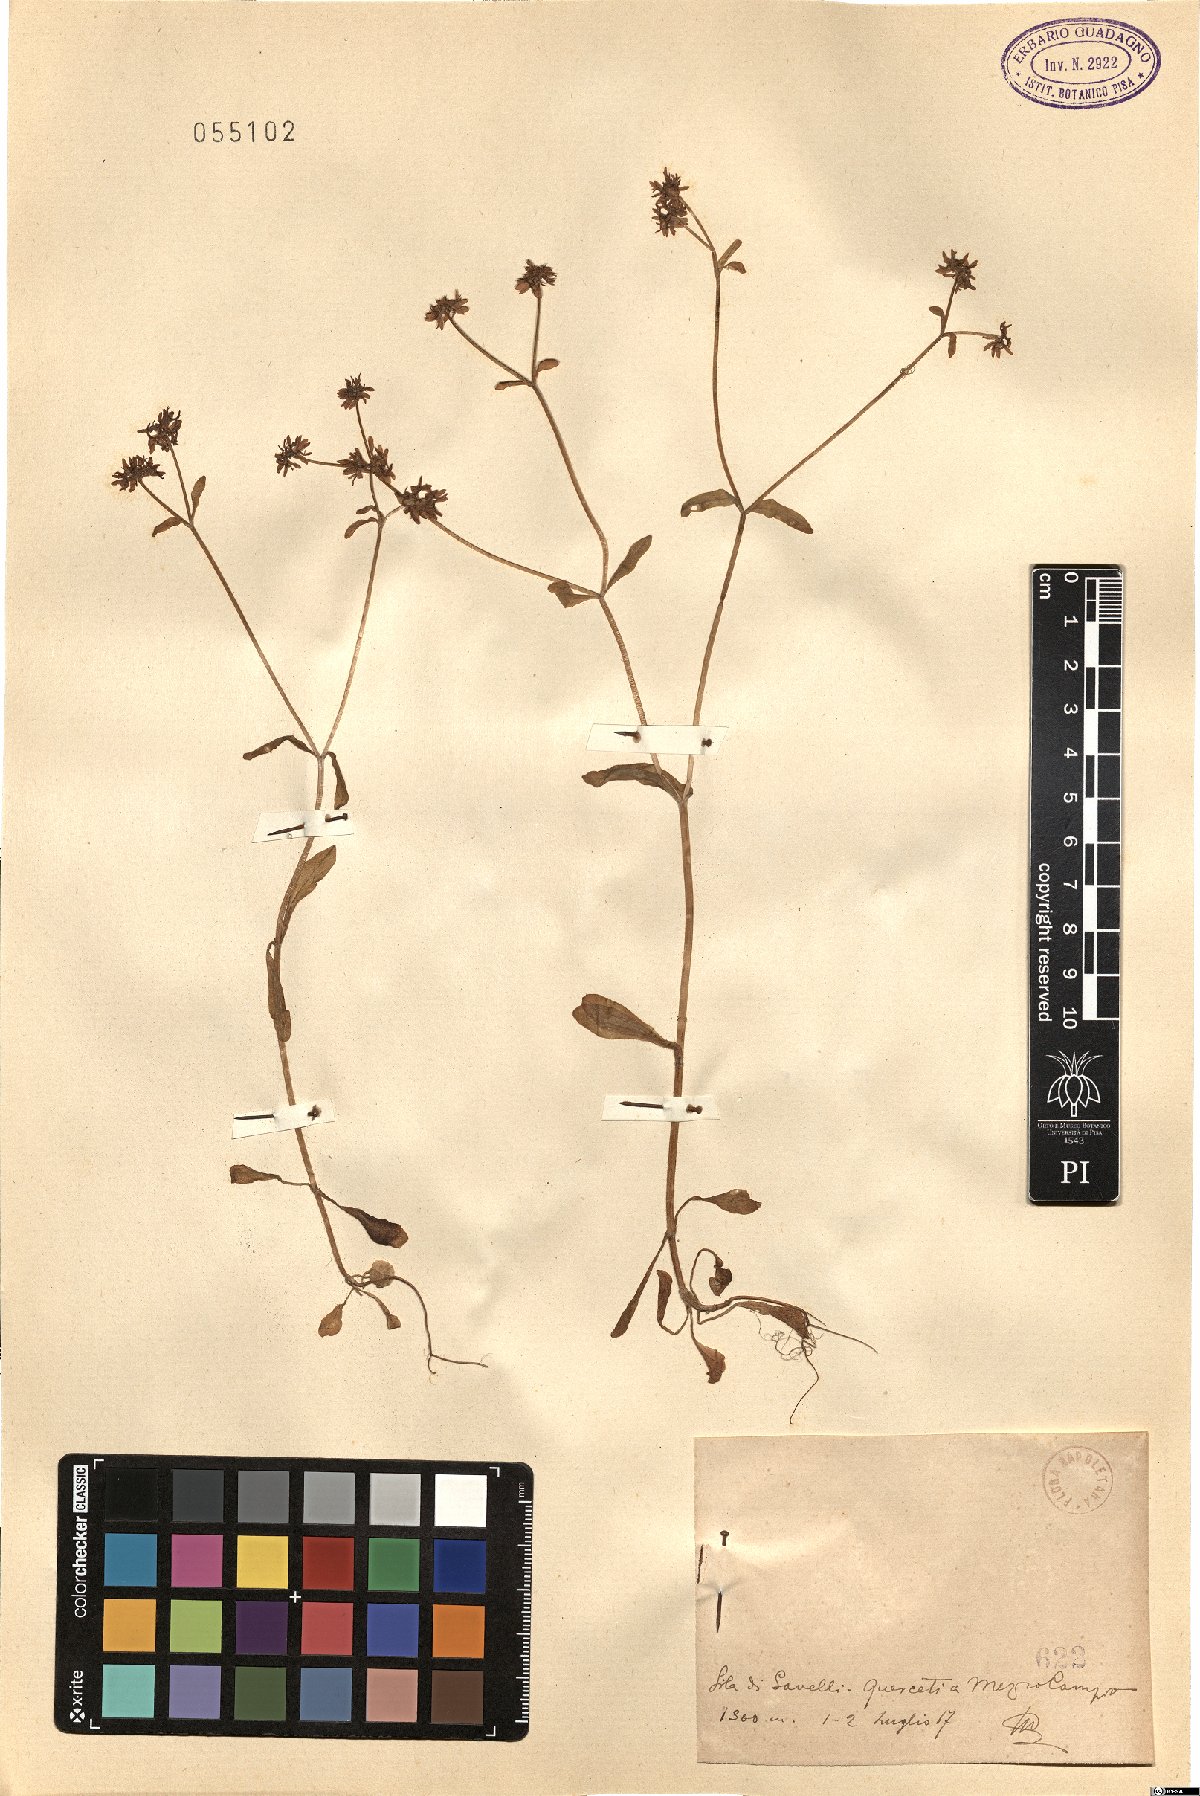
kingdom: Plantae
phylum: Tracheophyta
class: Magnoliopsida
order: Dipsacales
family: Caprifoliaceae
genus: Valerianella
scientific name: Valerianella
